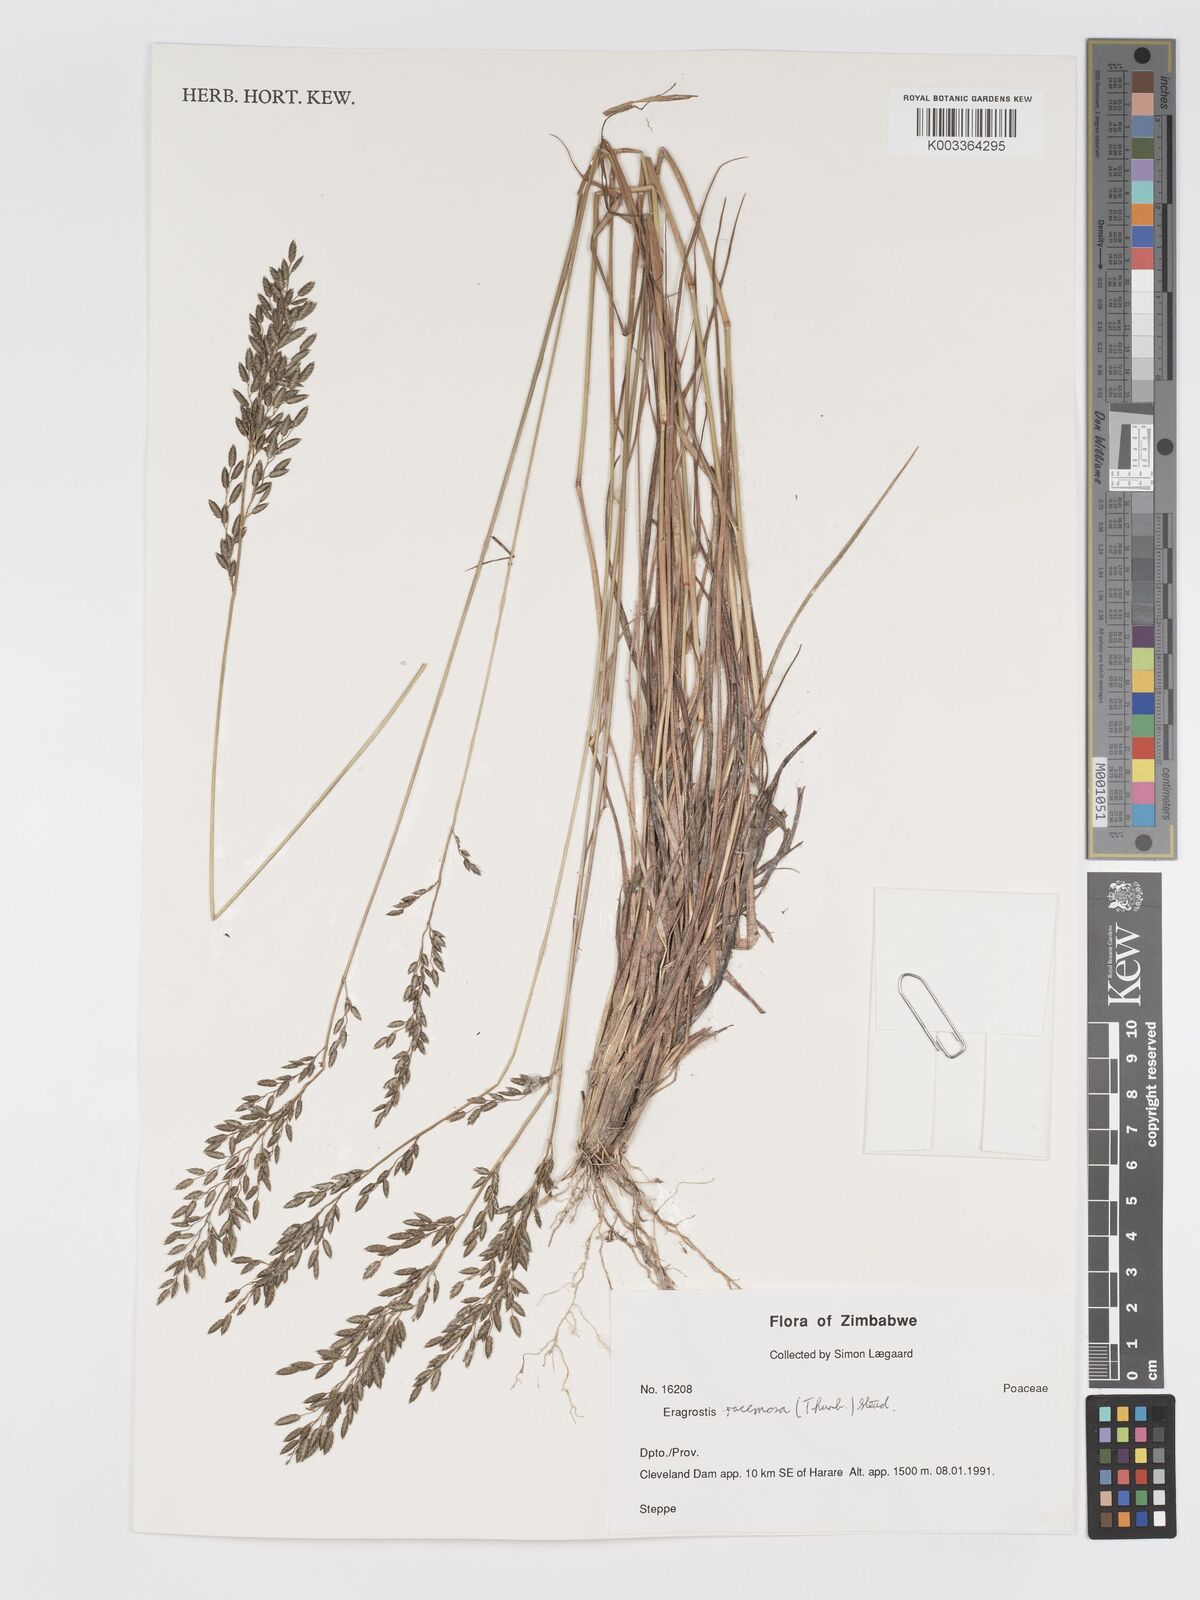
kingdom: Plantae
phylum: Tracheophyta
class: Liliopsida
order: Poales
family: Poaceae
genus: Eragrostis
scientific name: Eragrostis racemosa
